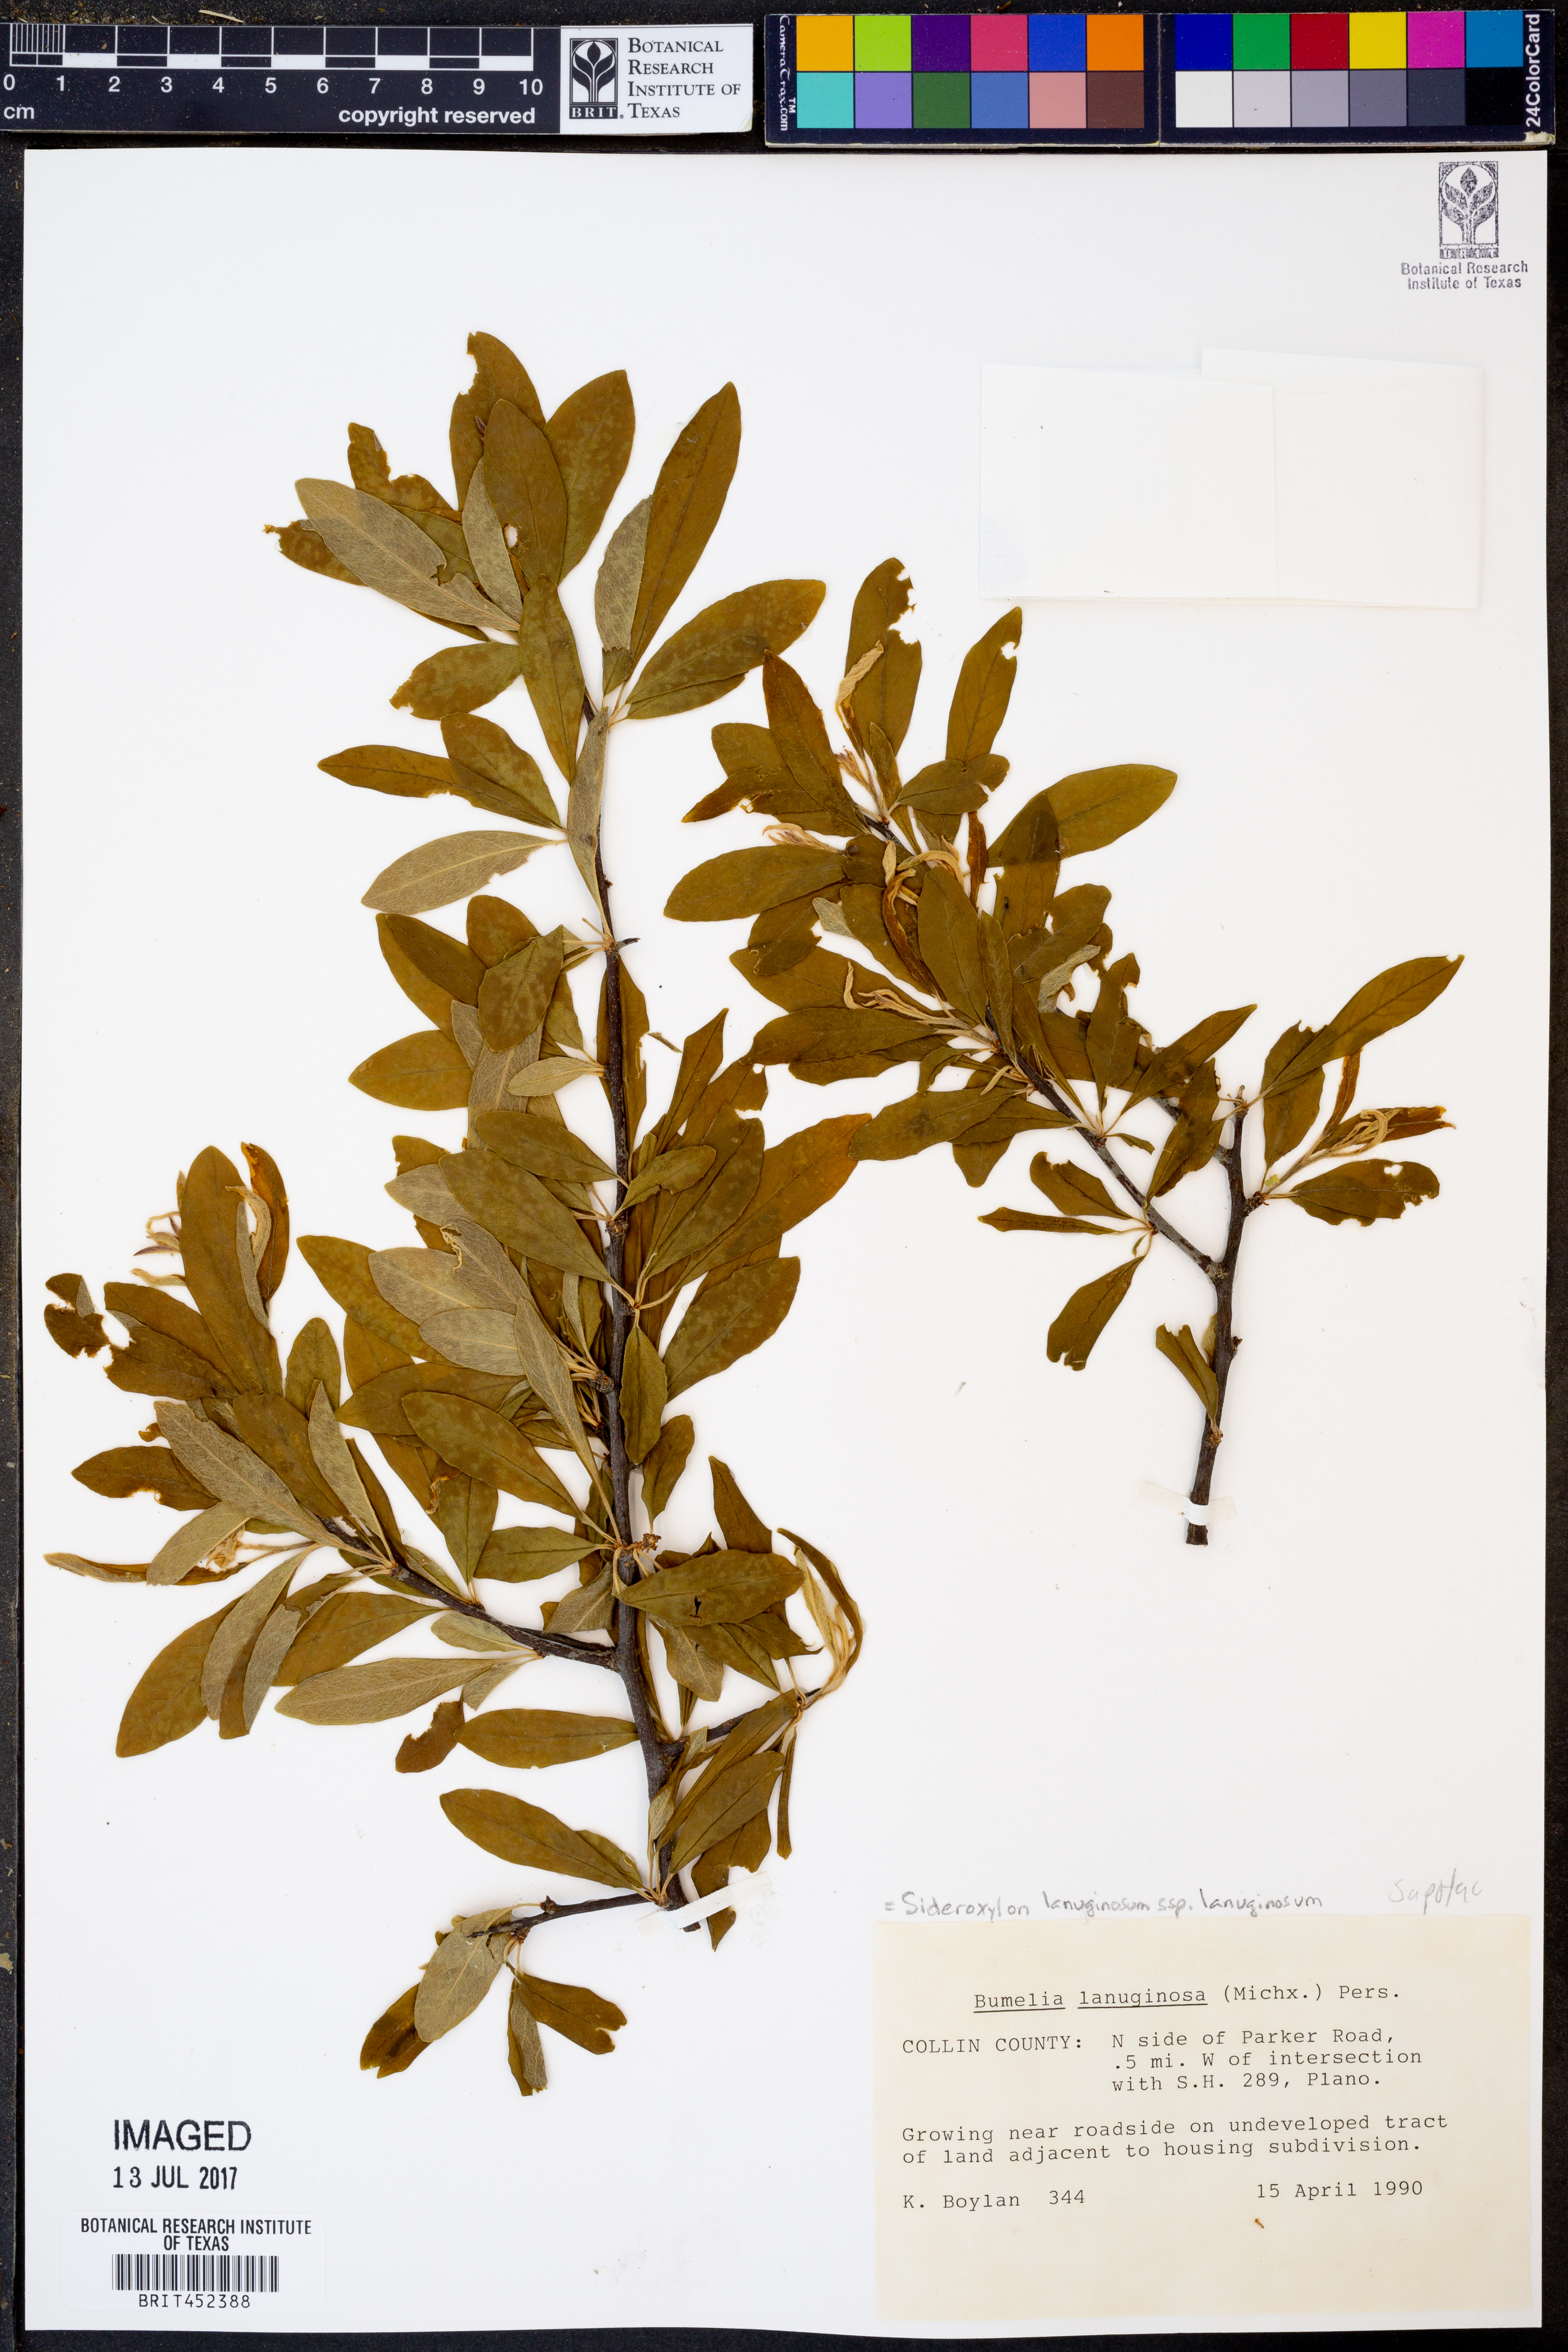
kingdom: Plantae
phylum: Tracheophyta
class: Magnoliopsida
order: Ericales
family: Sapotaceae
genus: Sideroxylon
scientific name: Sideroxylon lanuginosum
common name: Chittamwood
